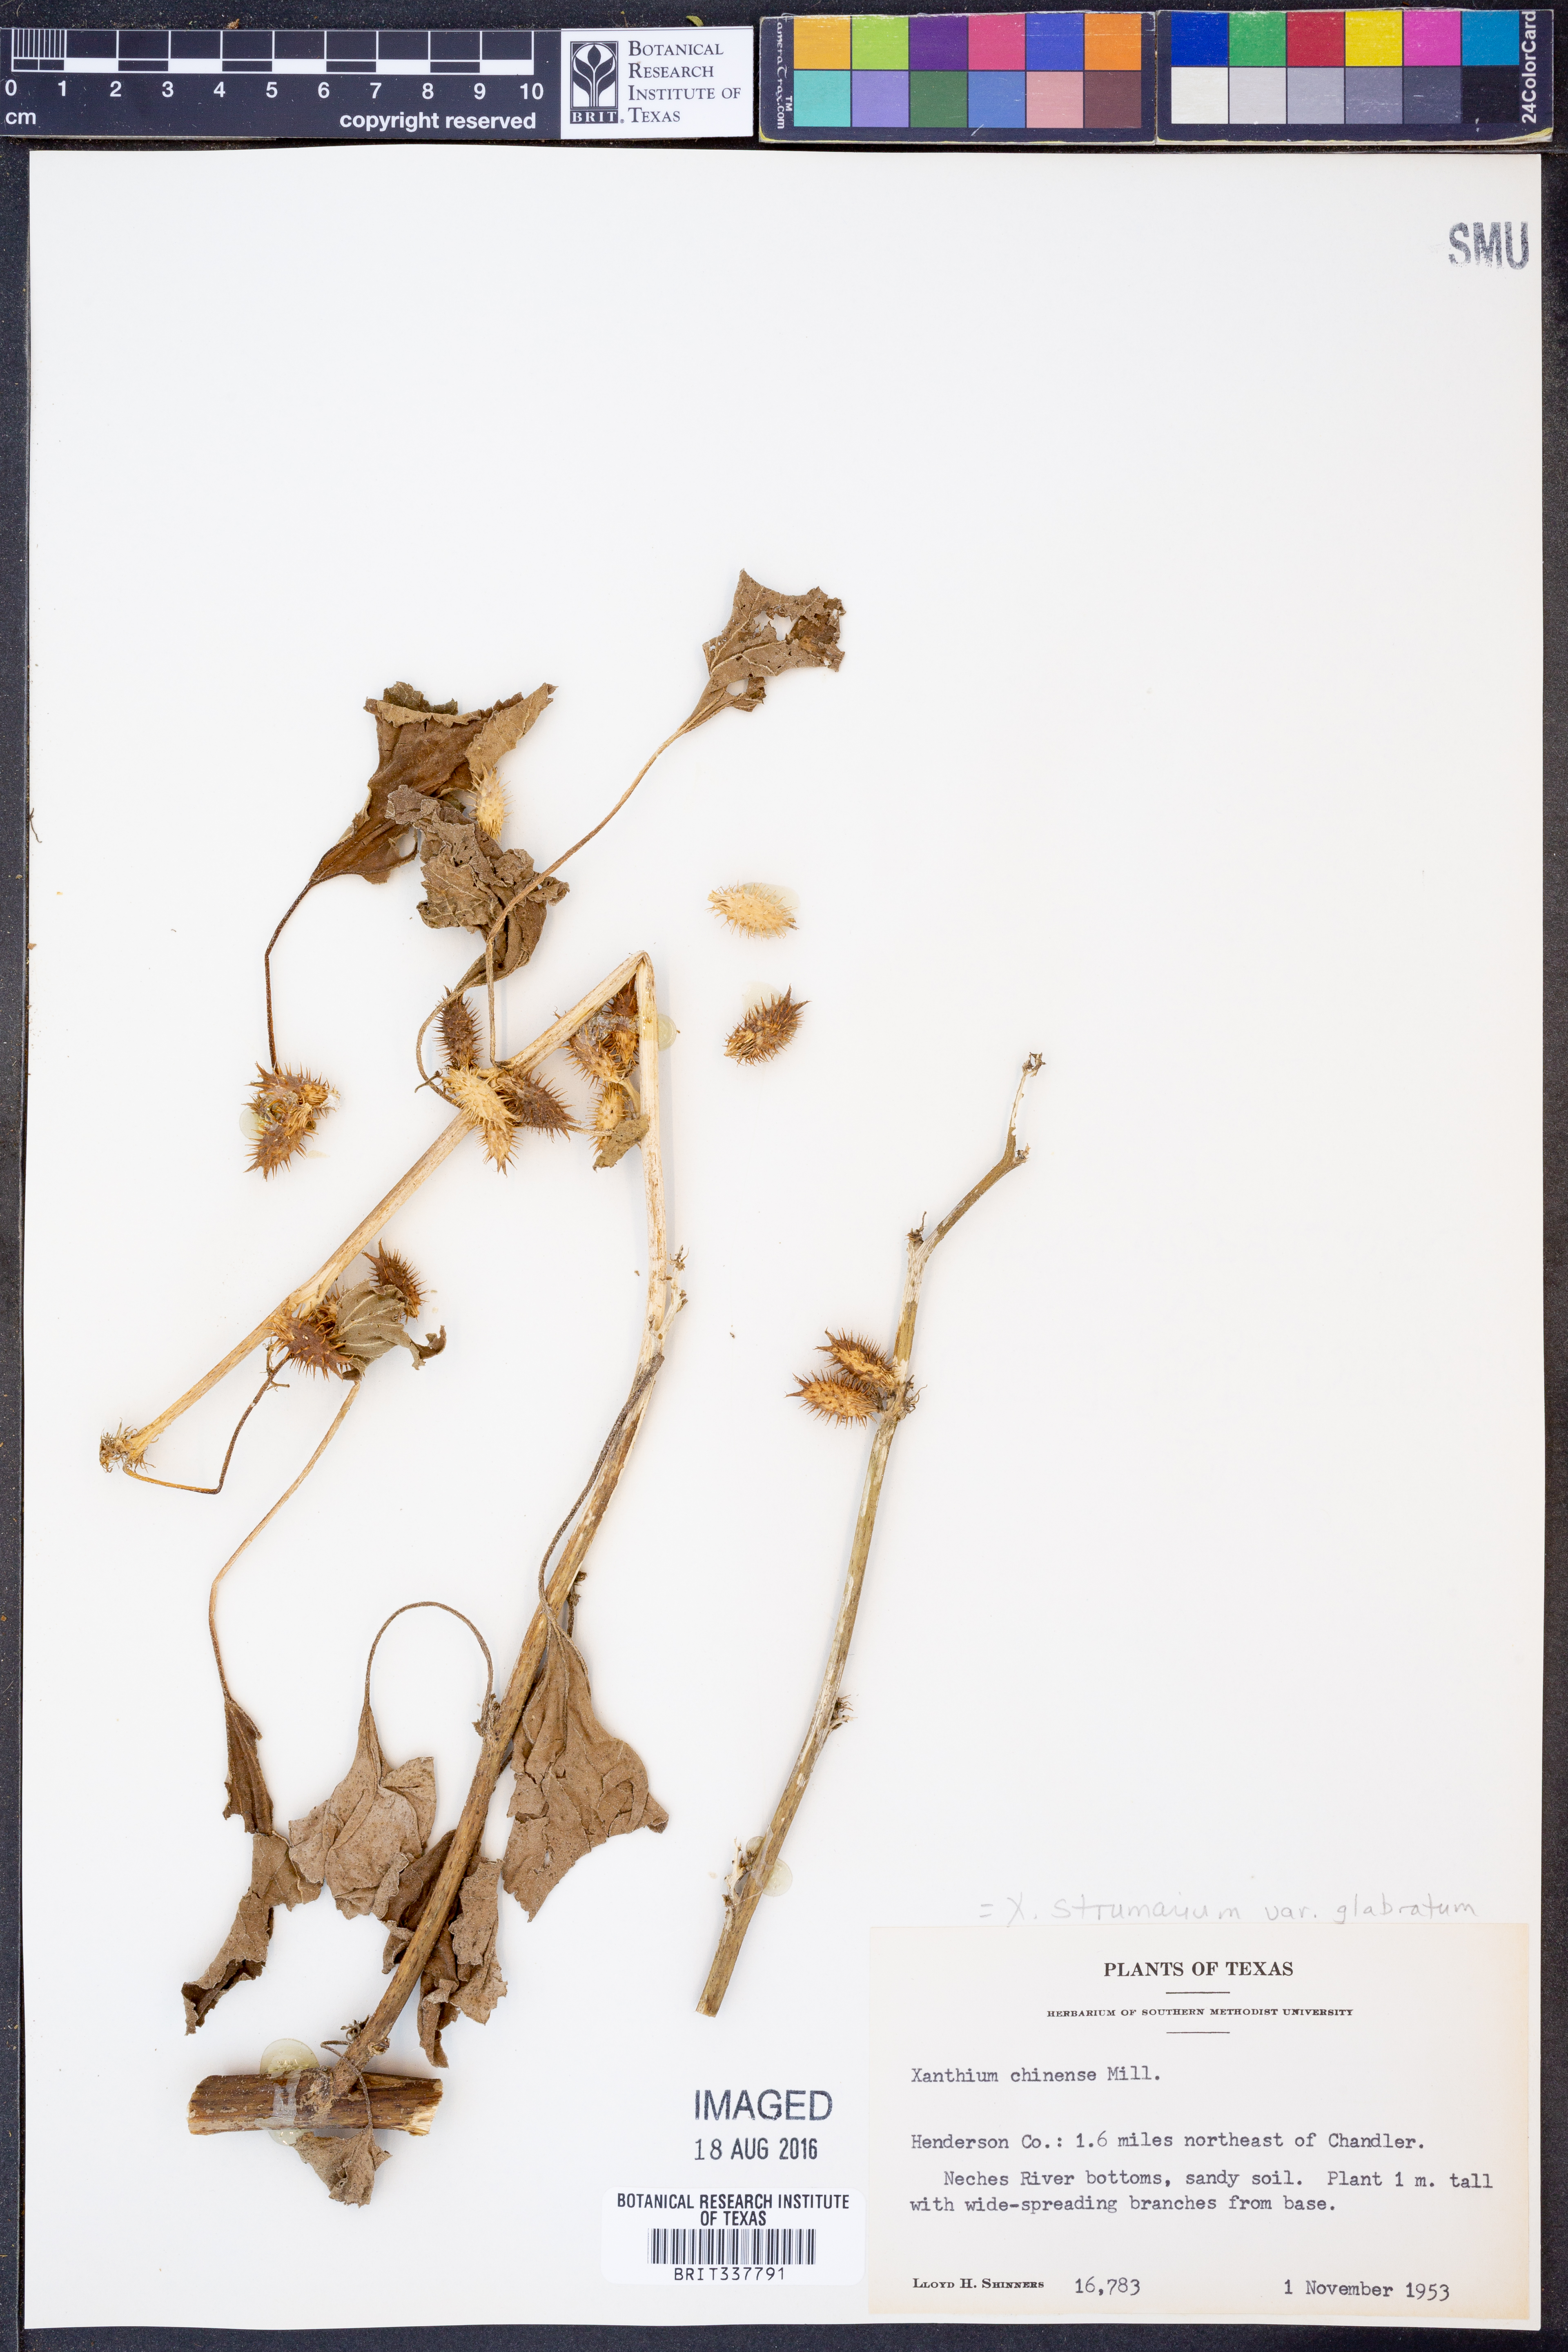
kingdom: Plantae
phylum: Tracheophyta
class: Magnoliopsida
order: Asterales
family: Asteraceae
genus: Xanthium
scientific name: Xanthium occidentale
